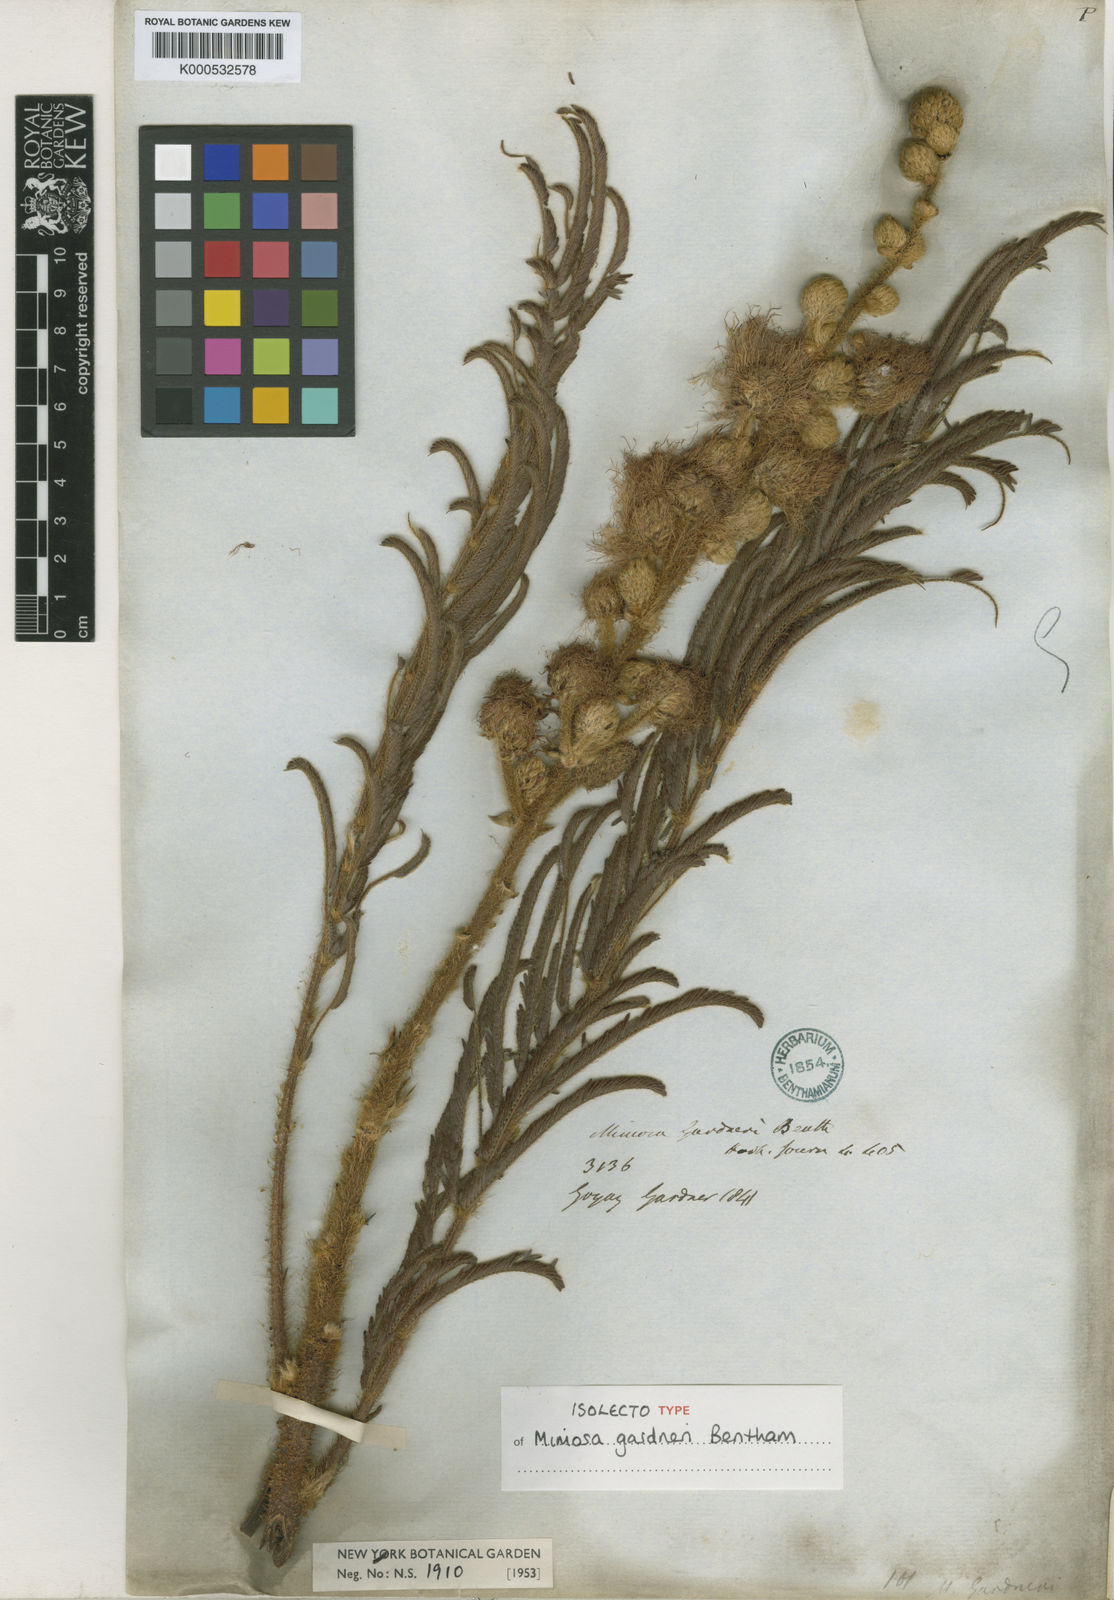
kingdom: Plantae
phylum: Tracheophyta
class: Magnoliopsida
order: Fabales
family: Fabaceae
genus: Mimosa
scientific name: Mimosa gardneri
